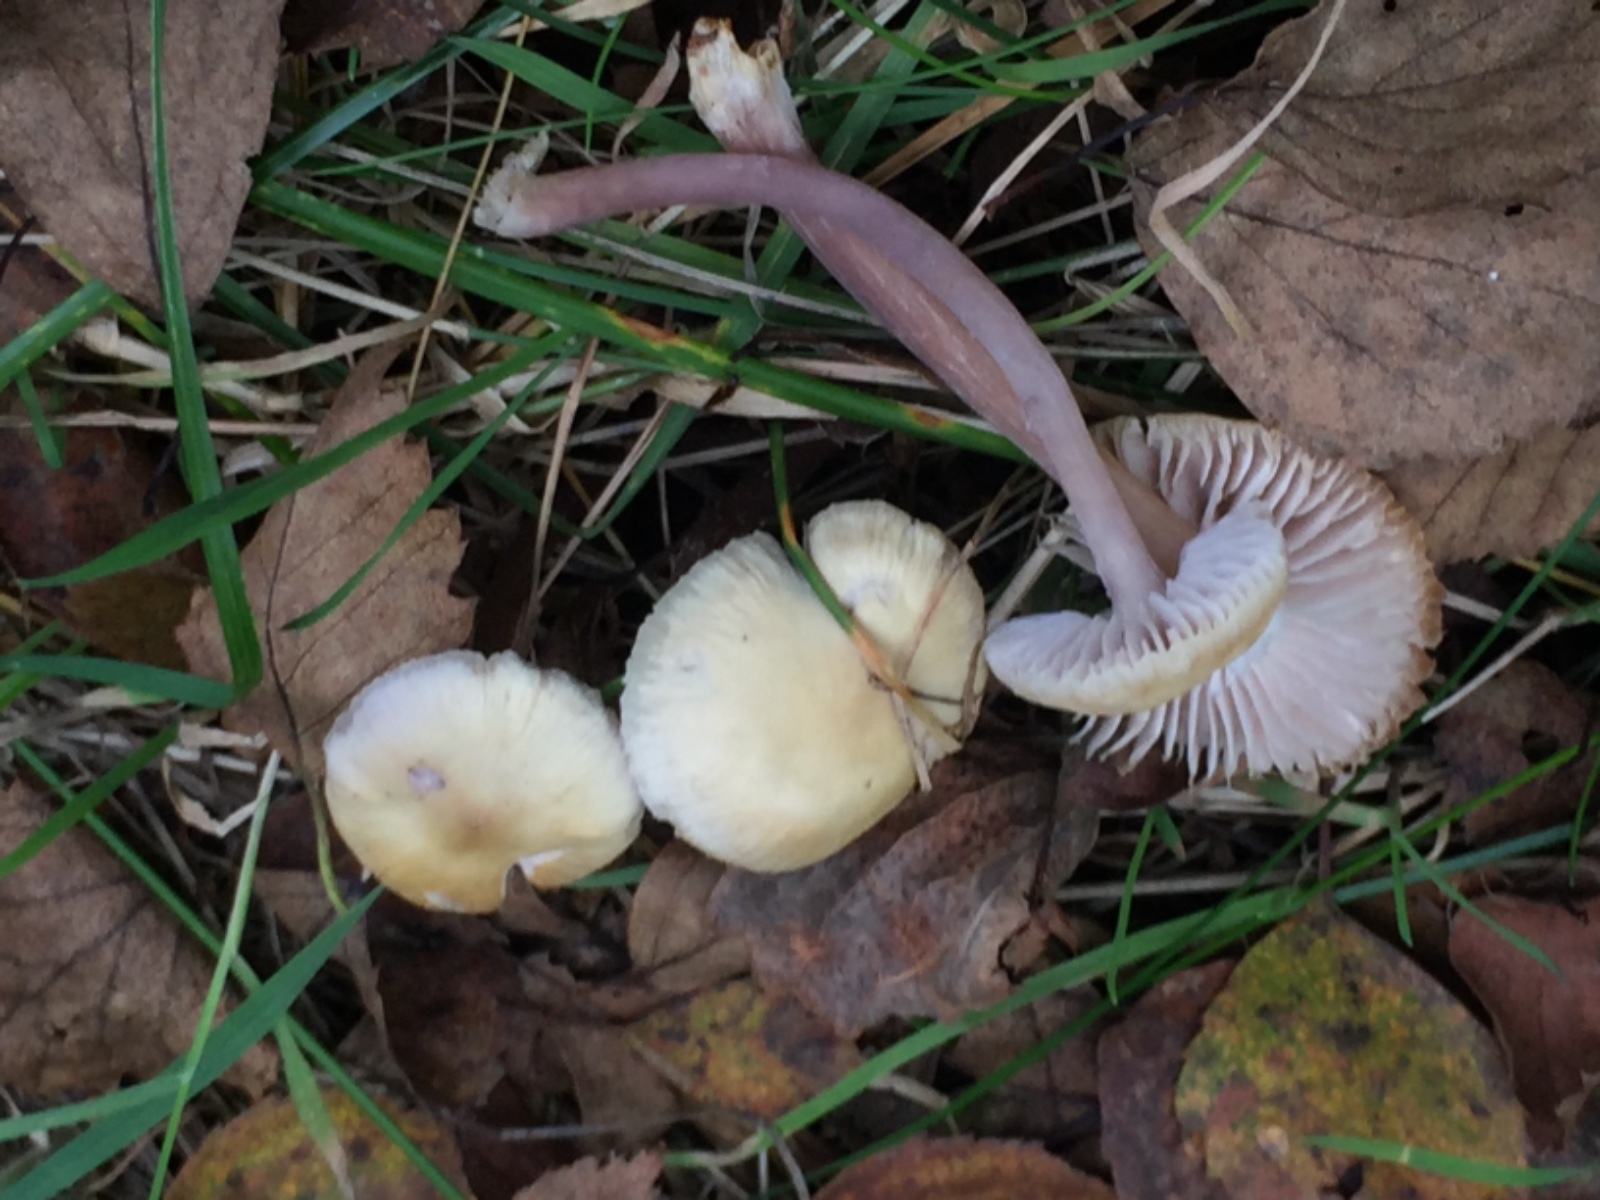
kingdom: Fungi
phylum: Basidiomycota
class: Agaricomycetes
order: Agaricales
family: Mycenaceae
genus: Mycena
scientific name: Mycena luteovariegata
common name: lillagul huesvamp
